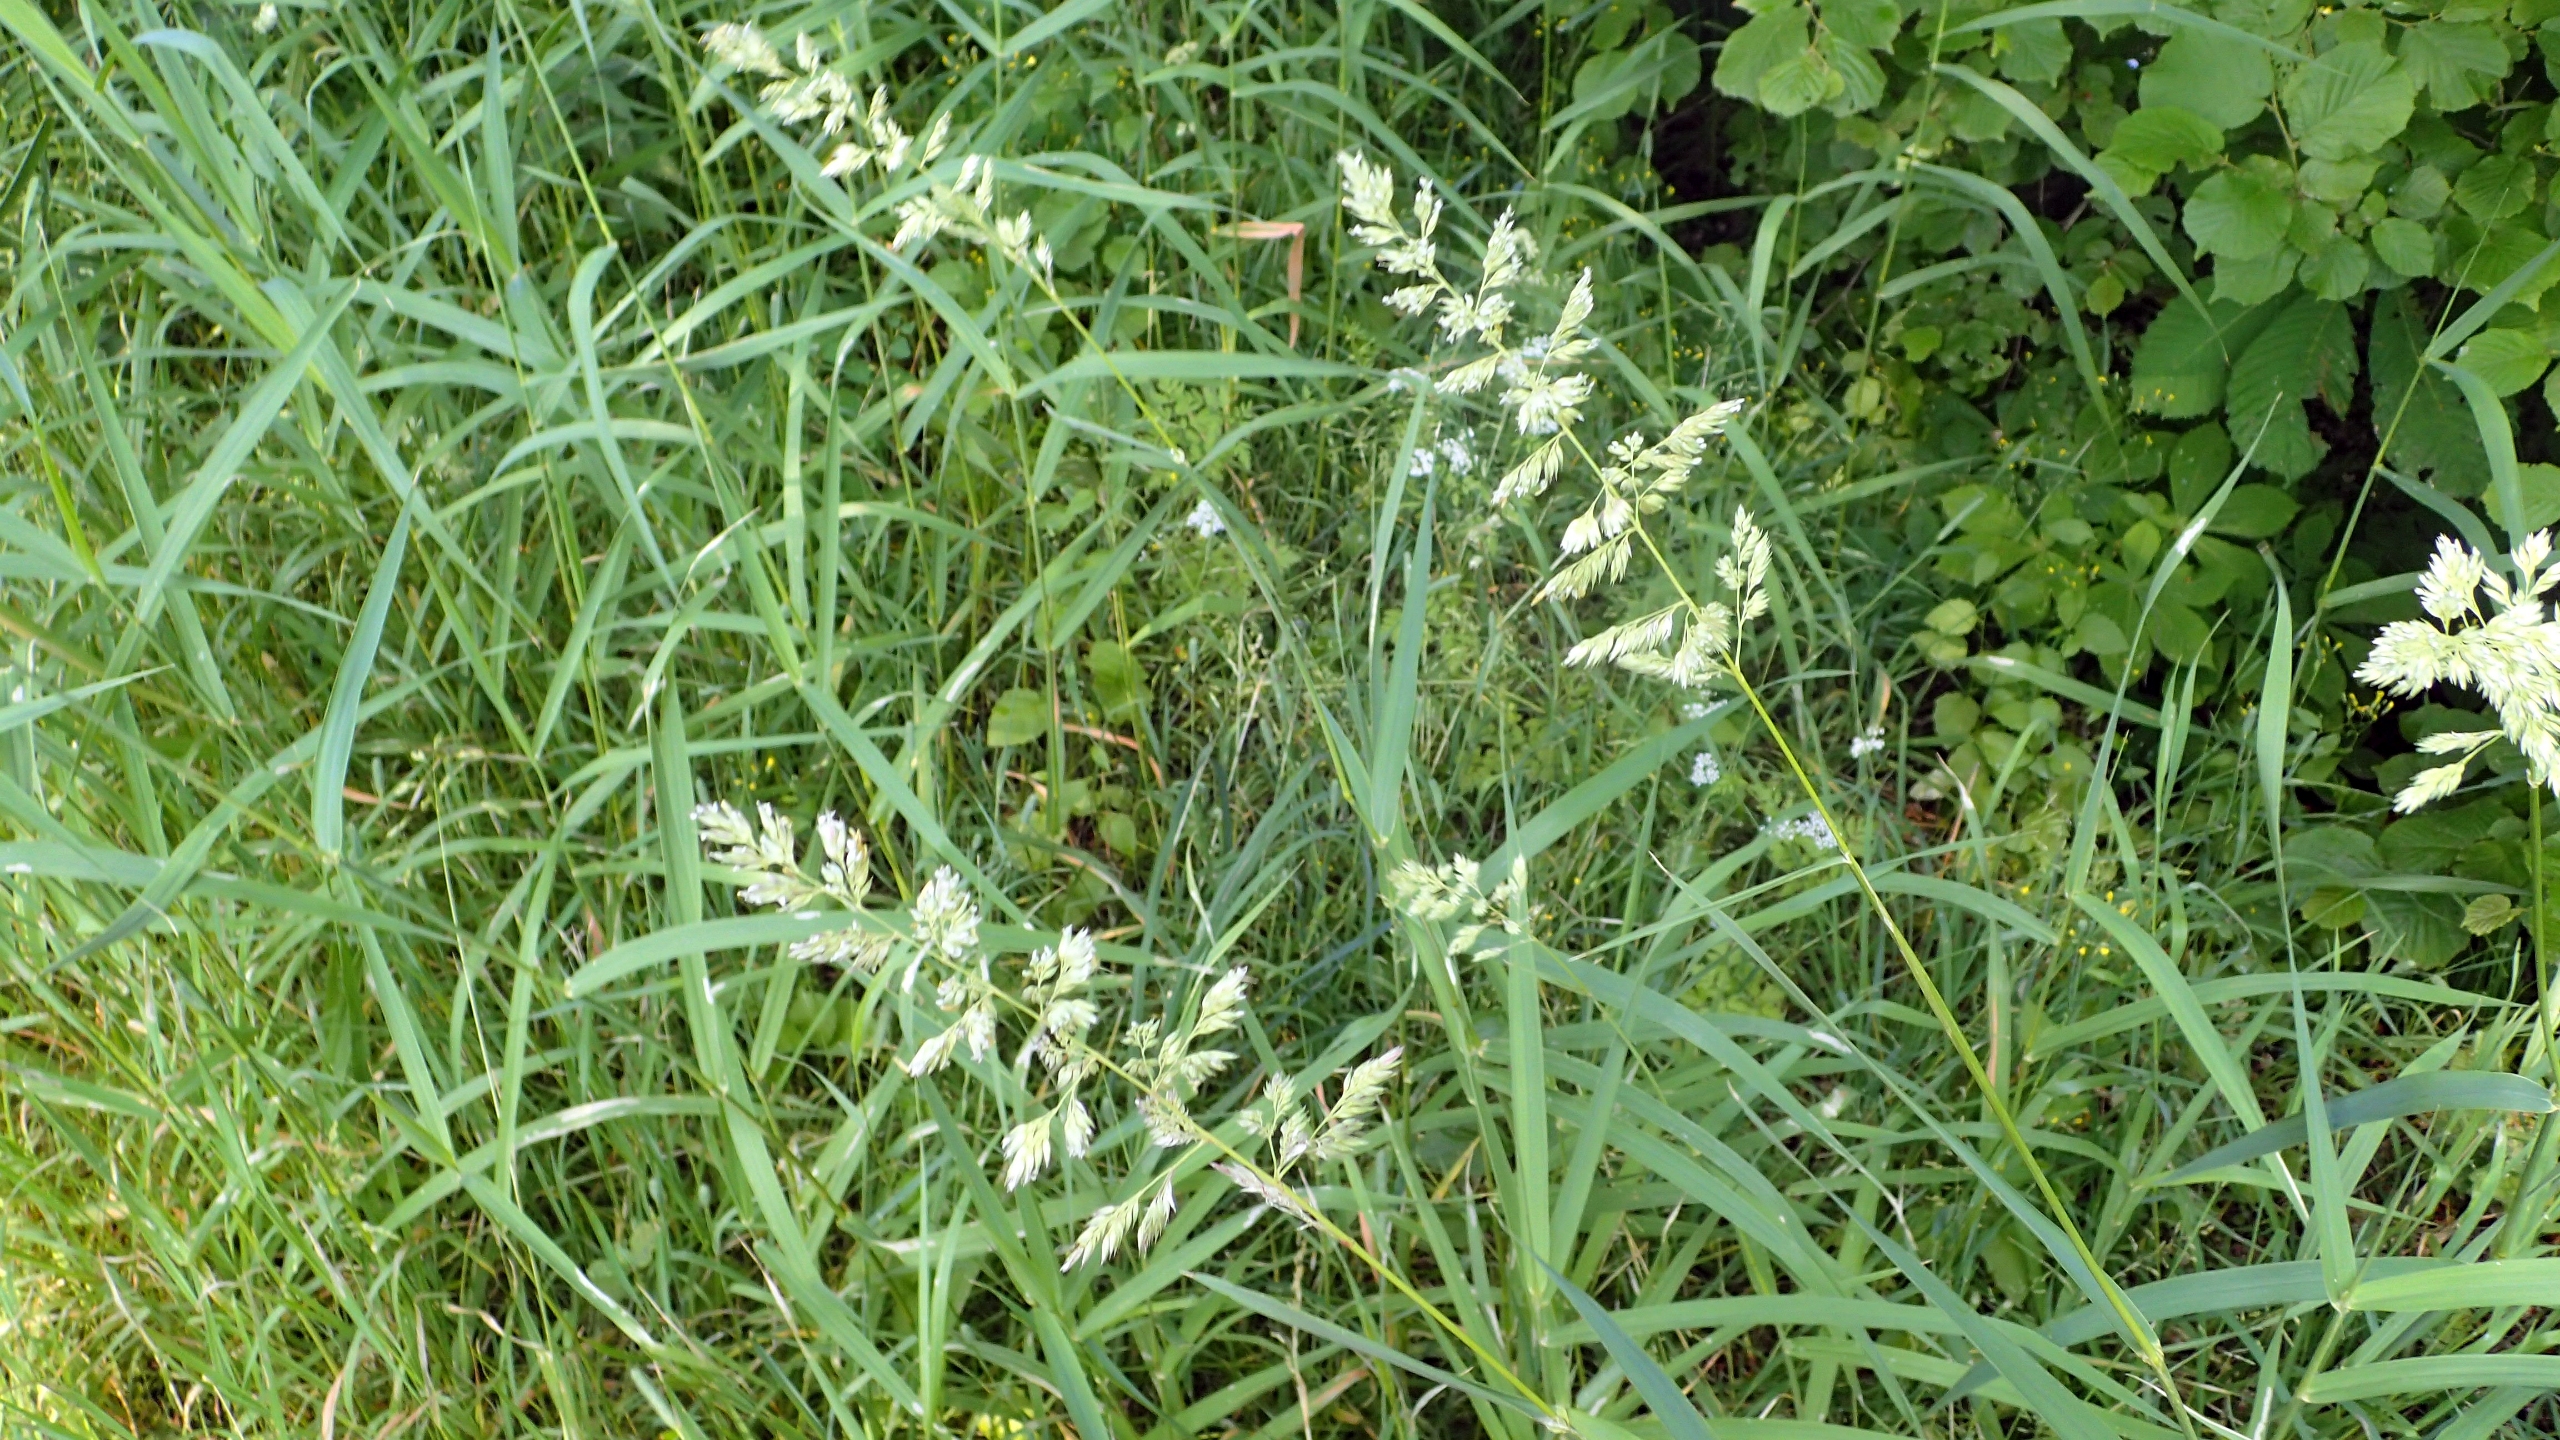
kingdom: Plantae
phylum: Tracheophyta
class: Liliopsida
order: Poales
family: Poaceae
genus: Phalaris
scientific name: Phalaris arundinacea
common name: Rørgræs
